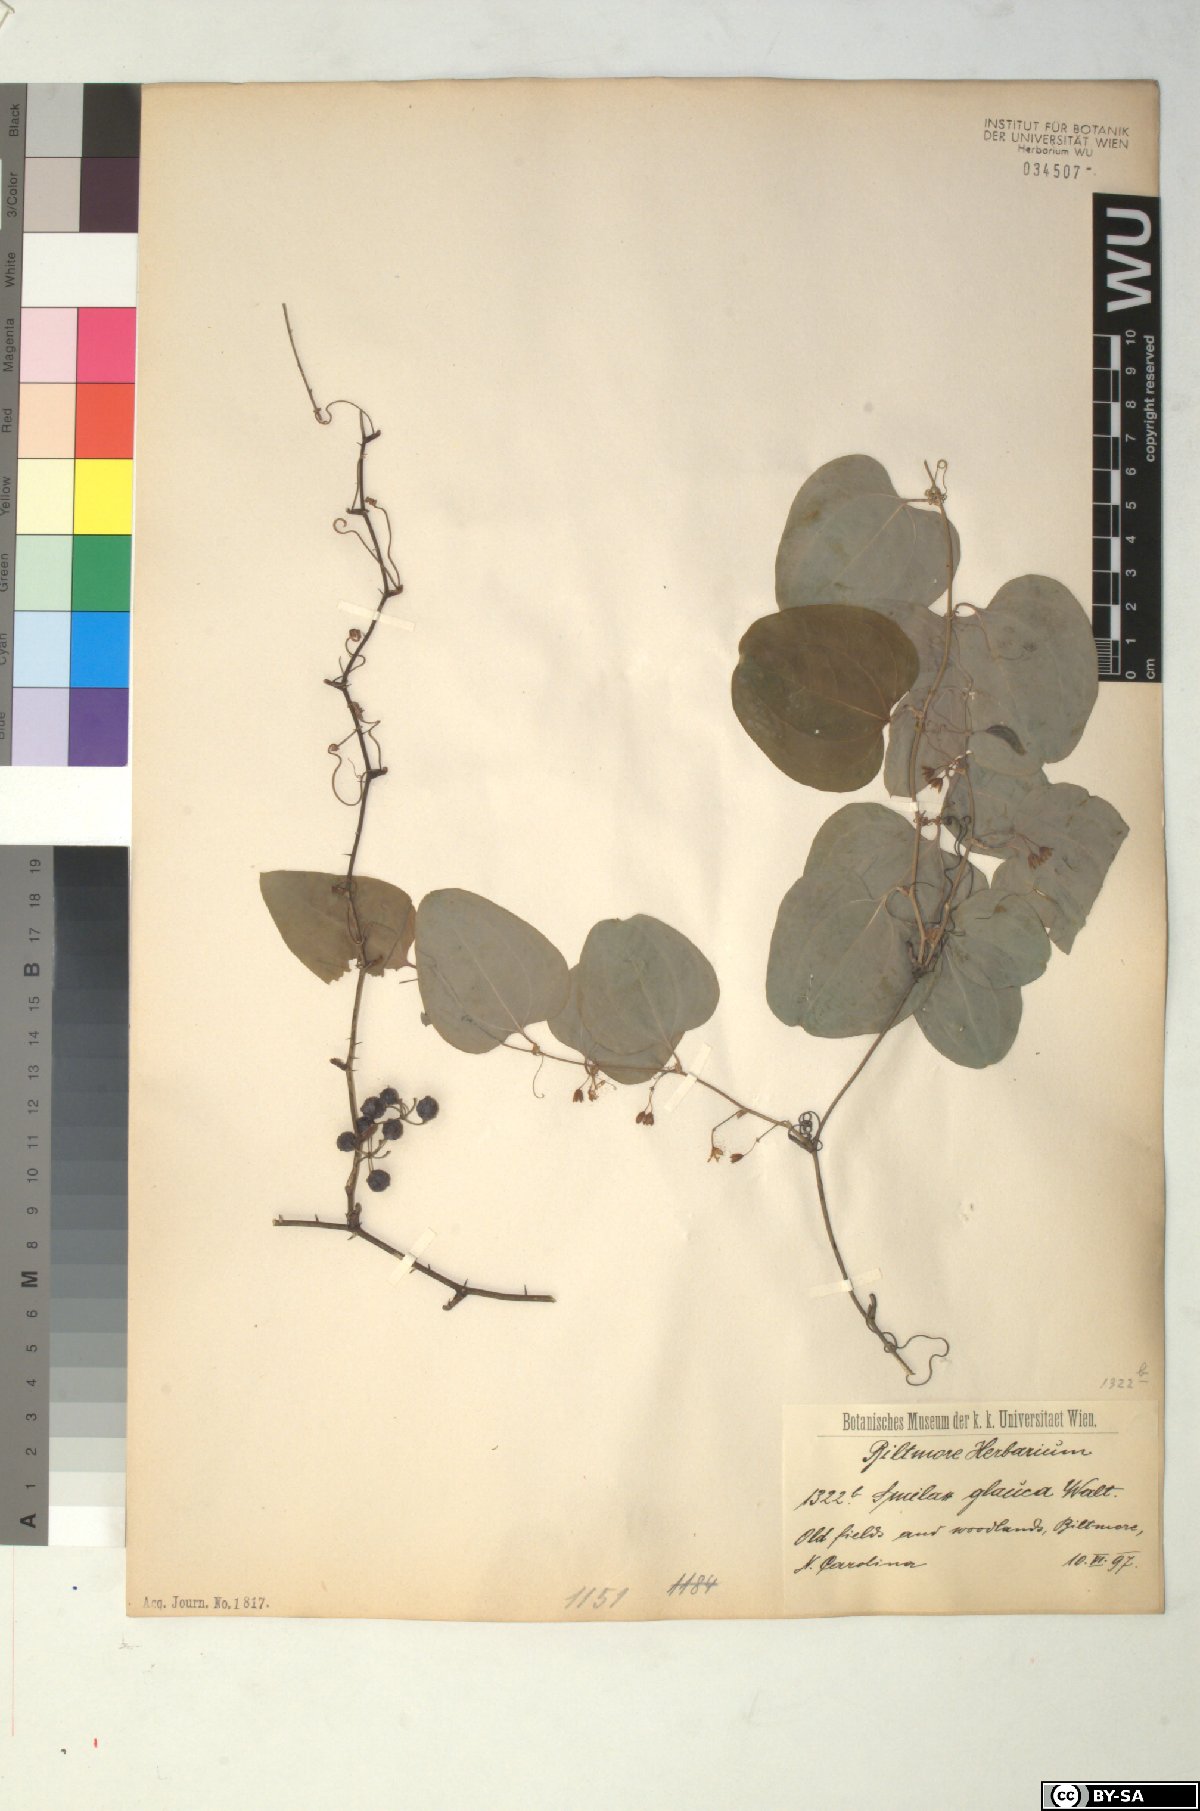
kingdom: Plantae
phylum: Tracheophyta
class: Liliopsida
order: Liliales
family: Smilacaceae
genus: Smilax
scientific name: Smilax glauca
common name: Cat greenbrier
